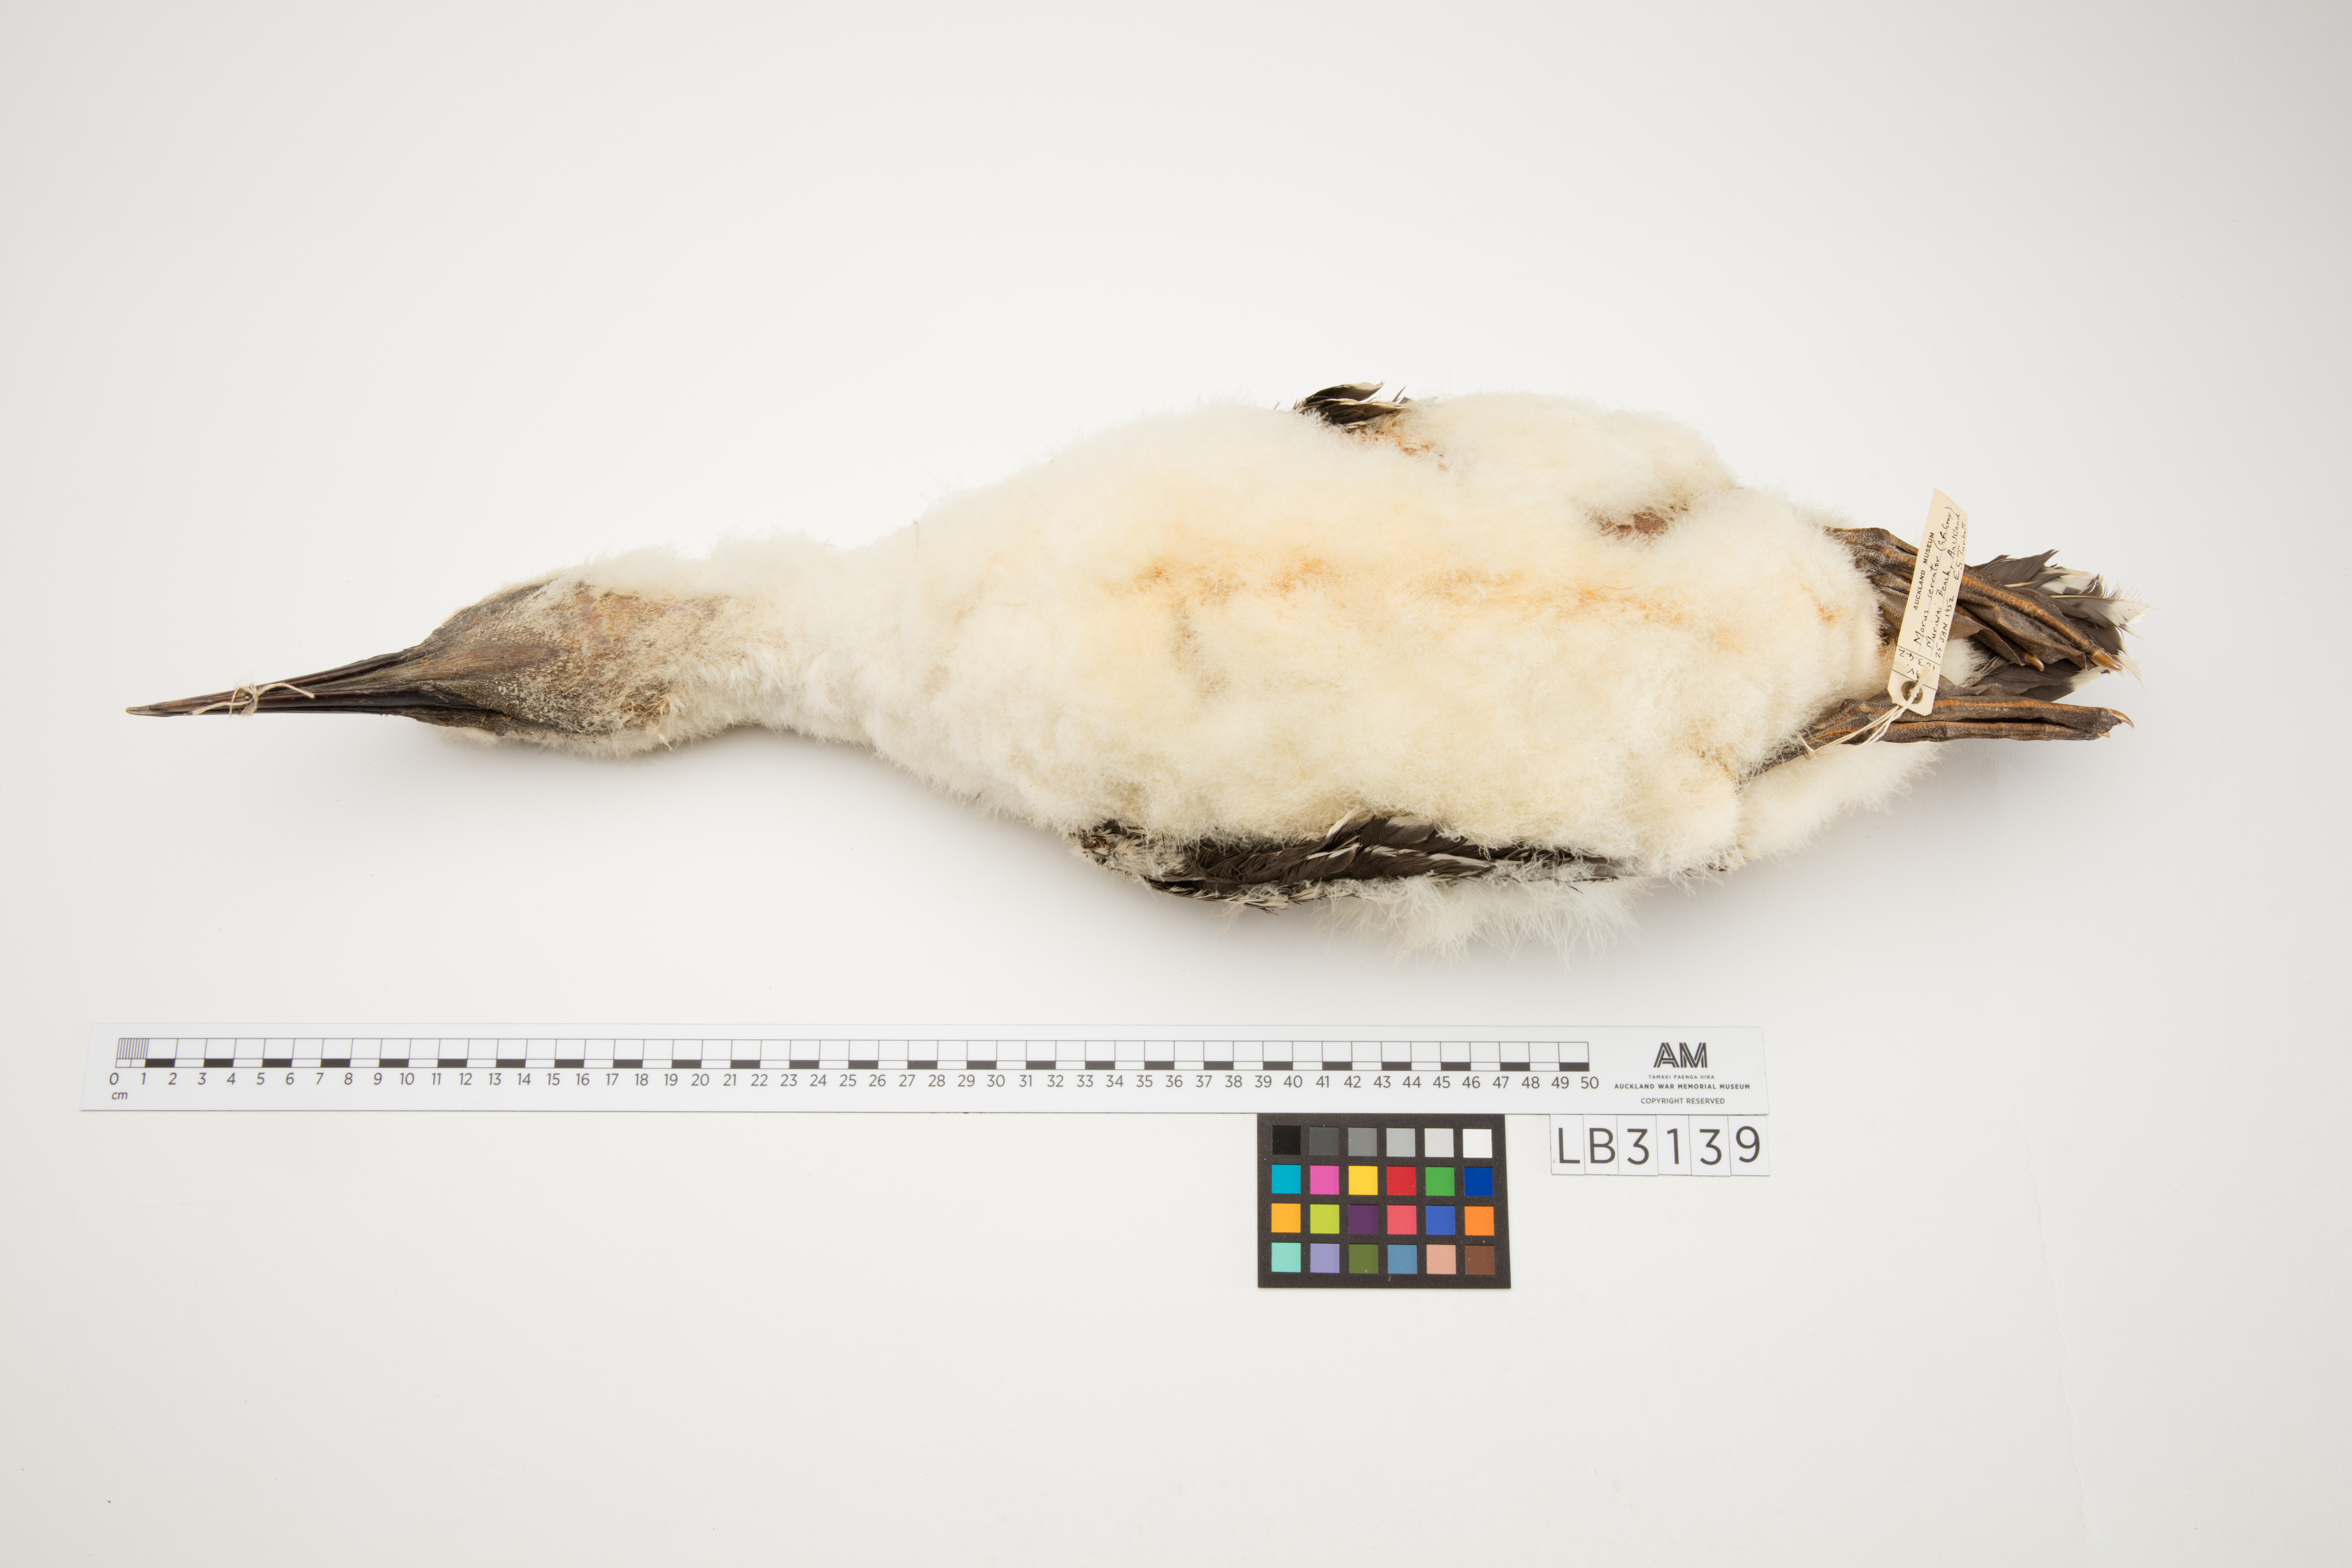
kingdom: Animalia
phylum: Chordata
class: Aves
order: Suliformes
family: Sulidae
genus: Morus
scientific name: Morus serrator
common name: Australasian gannet
